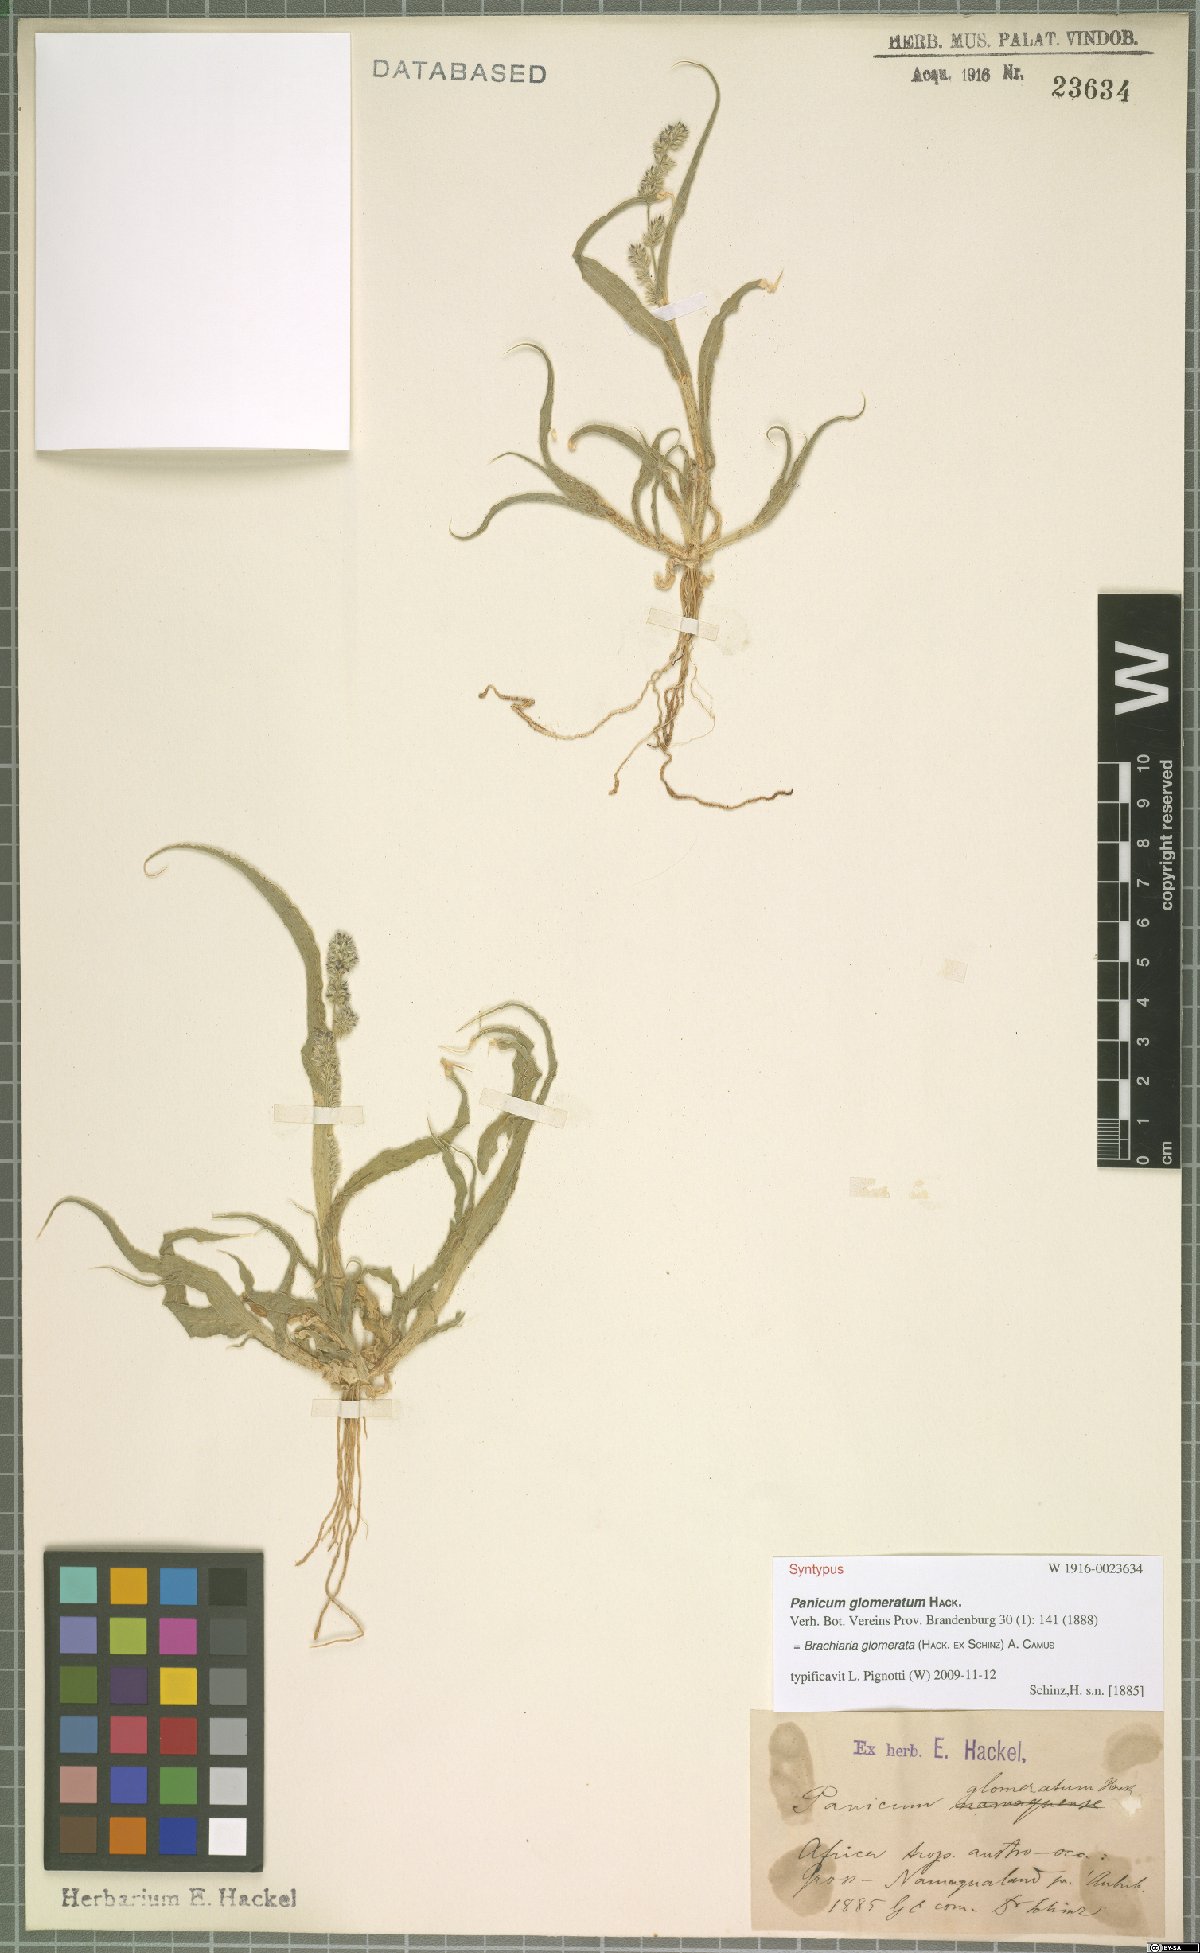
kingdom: Plantae
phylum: Tracheophyta
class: Liliopsida
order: Poales
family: Poaceae
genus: Urochloa
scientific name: Urochloa Brachiaria glomerata
